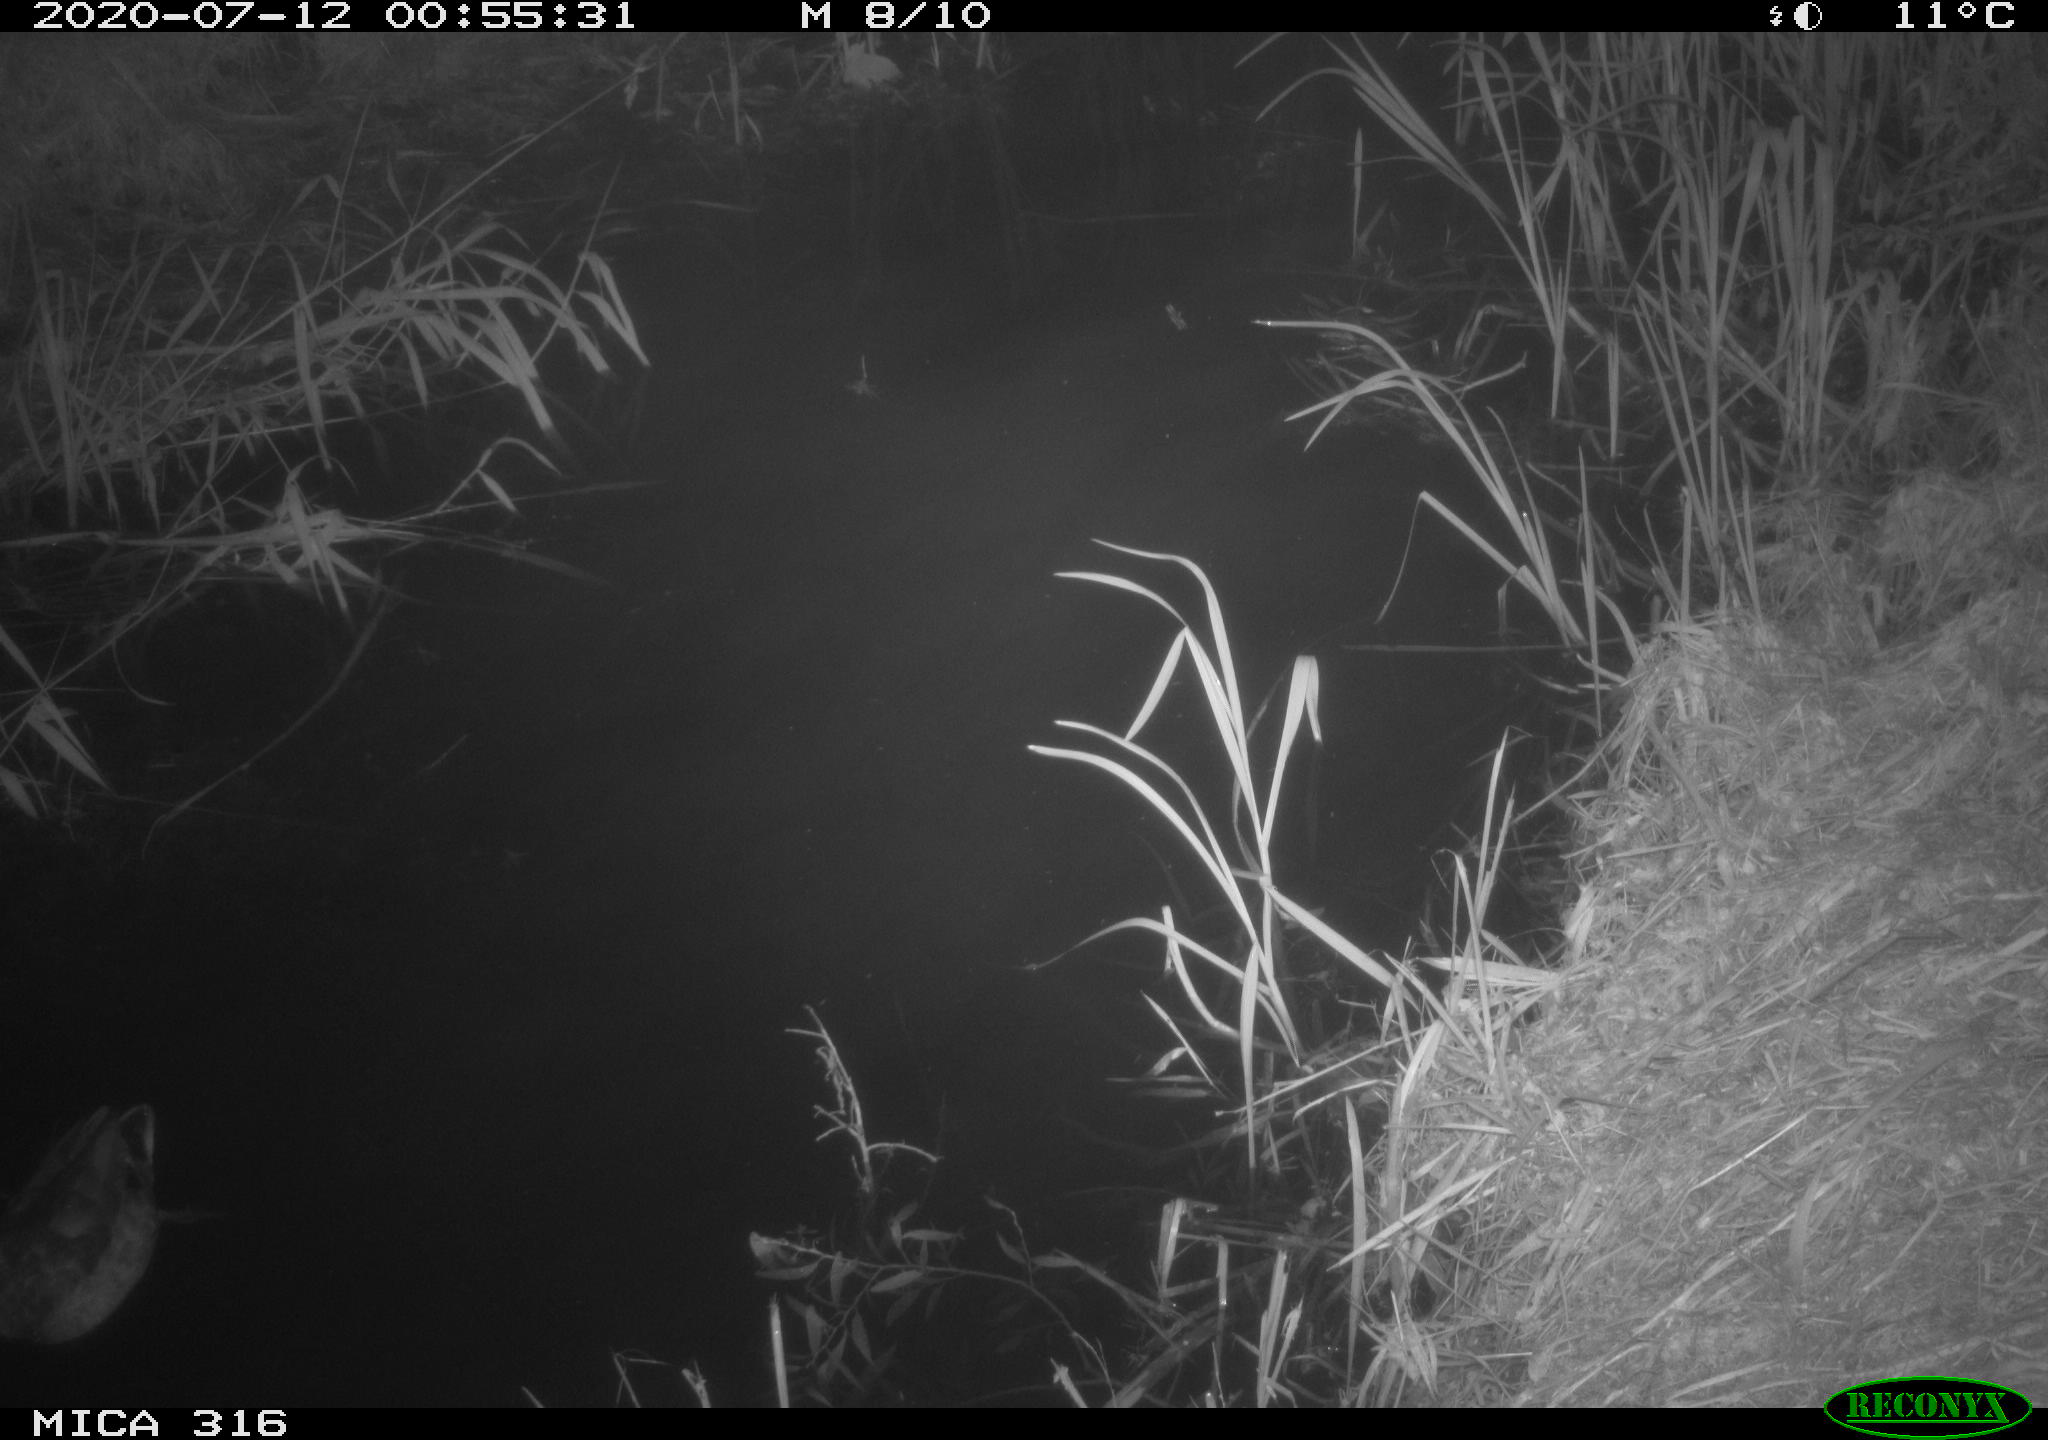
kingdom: Animalia
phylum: Chordata
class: Aves
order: Anseriformes
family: Anatidae
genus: Anas
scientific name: Anas platyrhynchos
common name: Mallard
